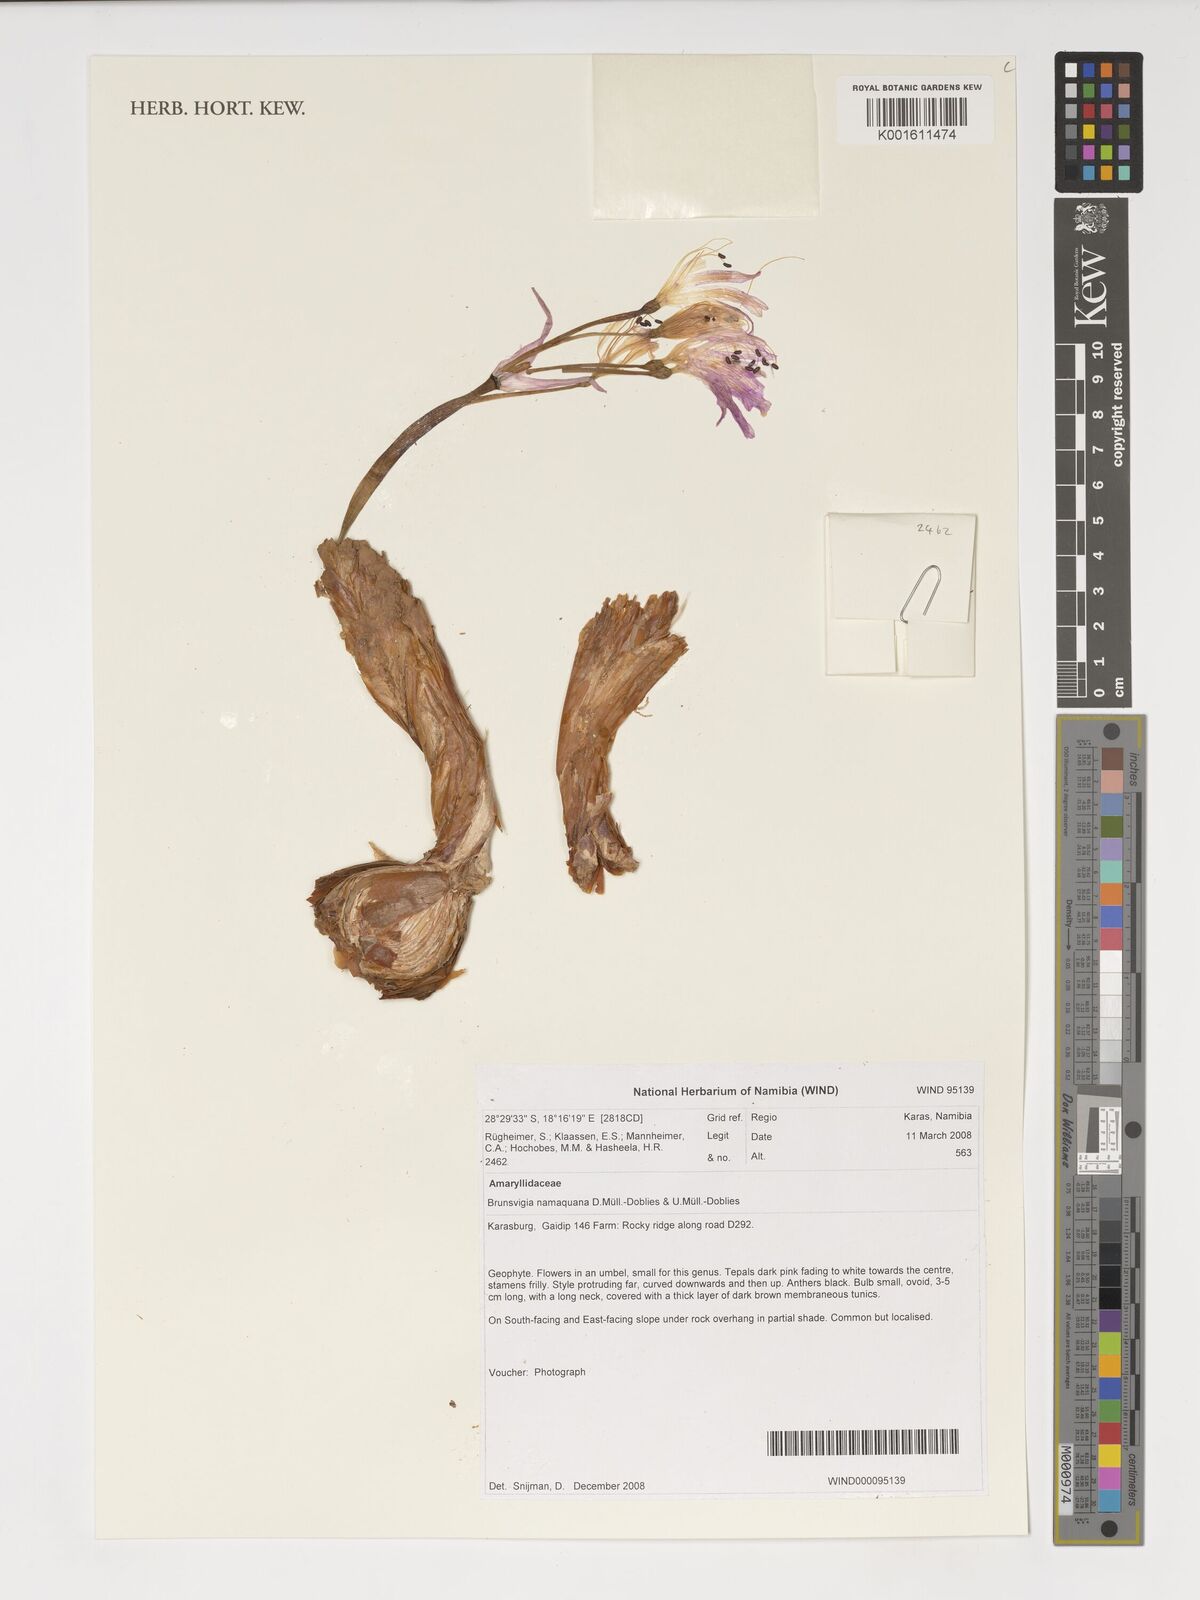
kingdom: Plantae
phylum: Tracheophyta
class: Liliopsida
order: Asparagales
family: Amaryllidaceae
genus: Brunsvigia
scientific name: Brunsvigia namaquana
